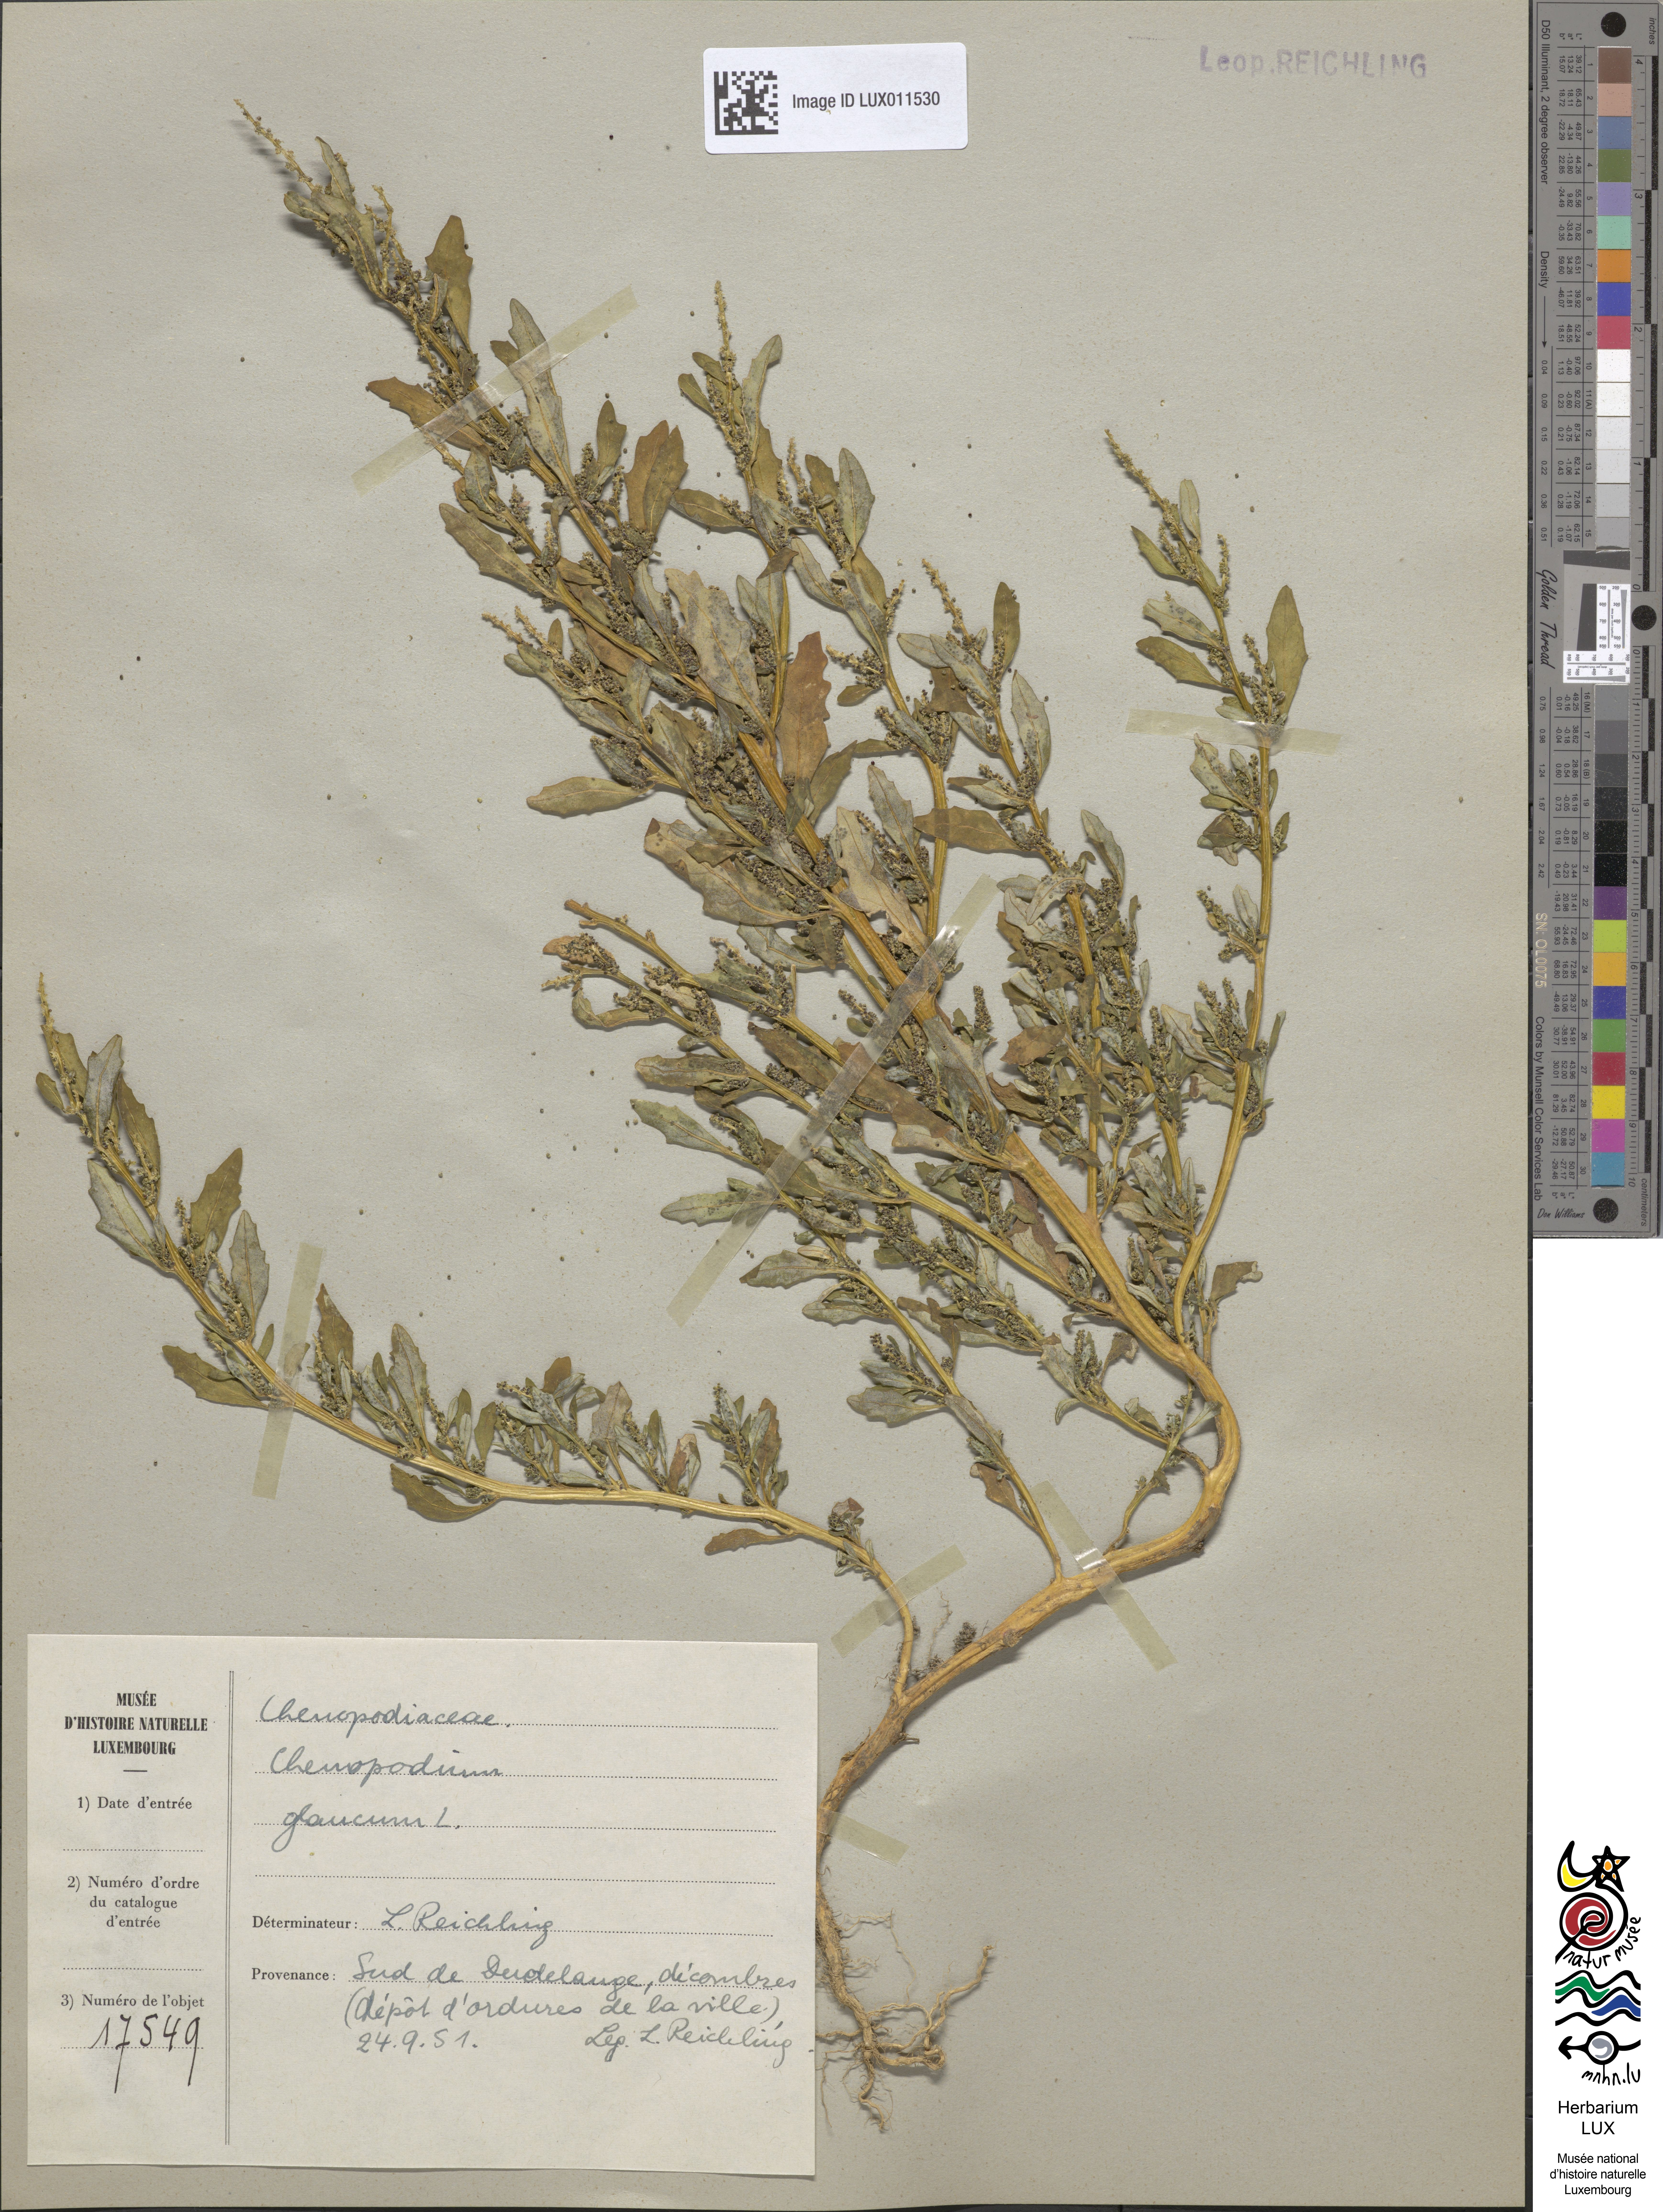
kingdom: Plantae
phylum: Tracheophyta
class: Magnoliopsida
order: Caryophyllales
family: Amaranthaceae
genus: Oxybasis
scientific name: Oxybasis glauca
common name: Glaucous goosefoot
